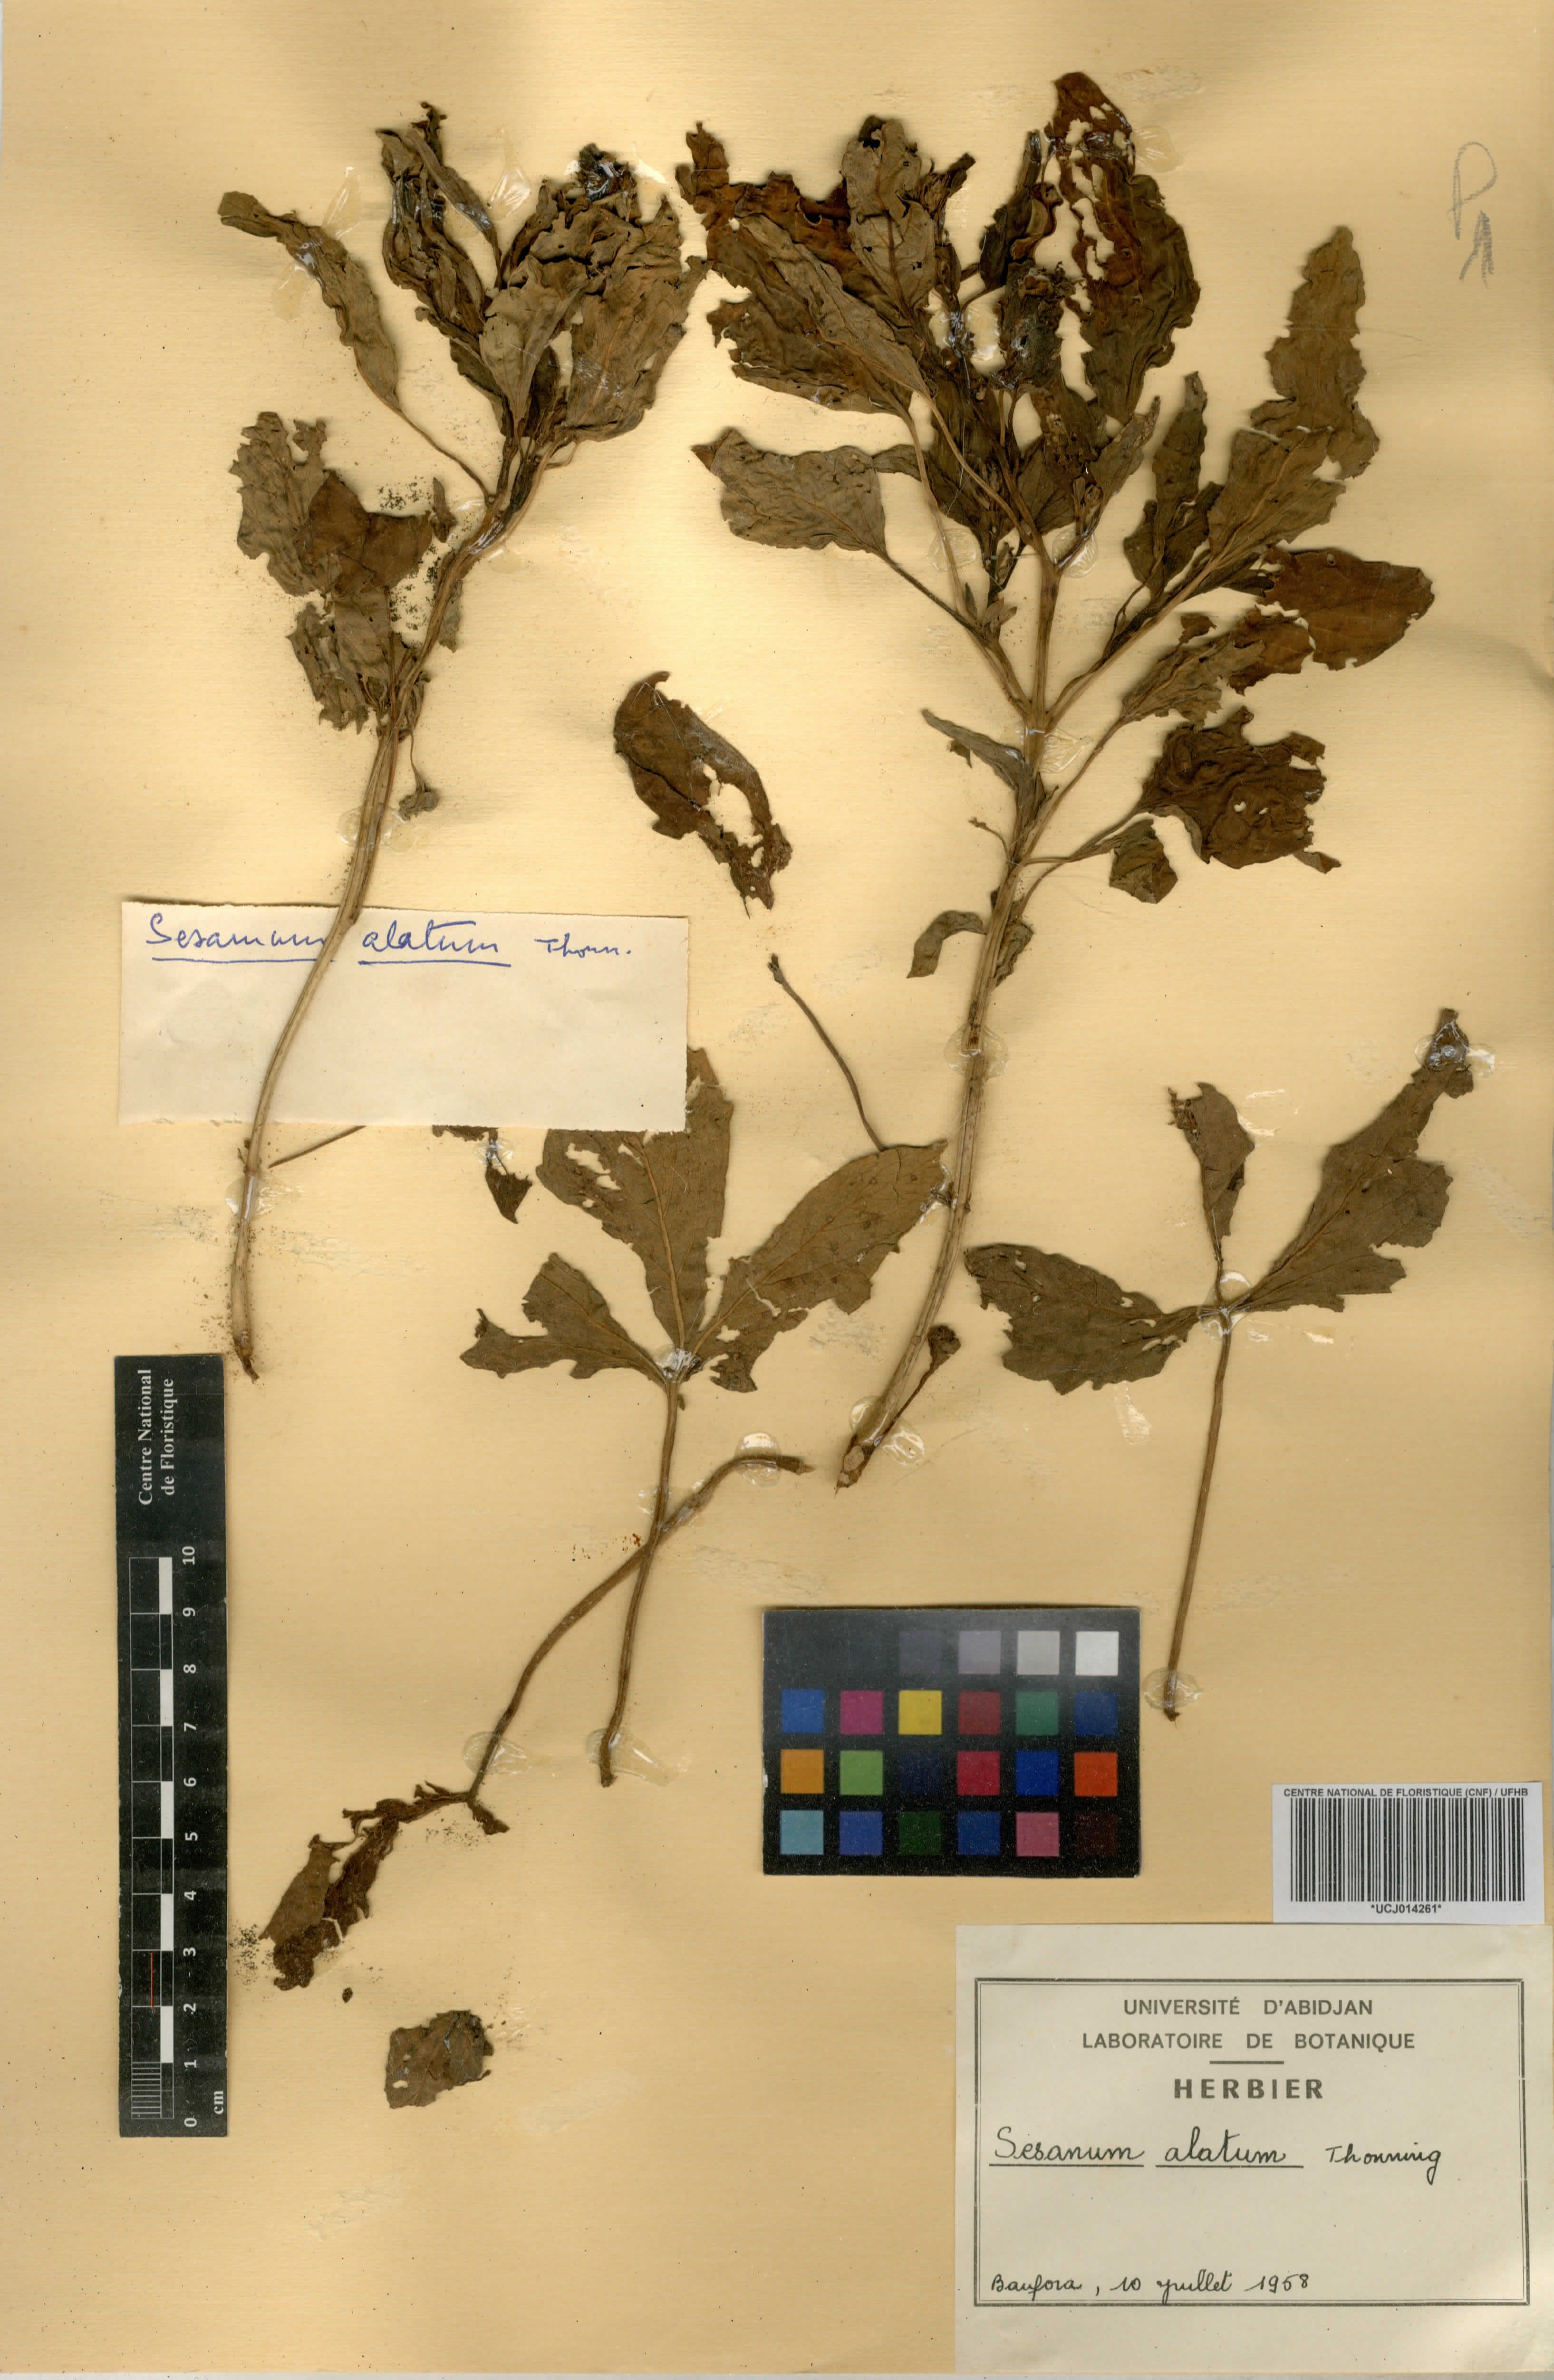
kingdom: Plantae
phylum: Tracheophyta
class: Magnoliopsida
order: Lamiales
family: Pedaliaceae
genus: Sesamum
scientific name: Sesamum alatum
